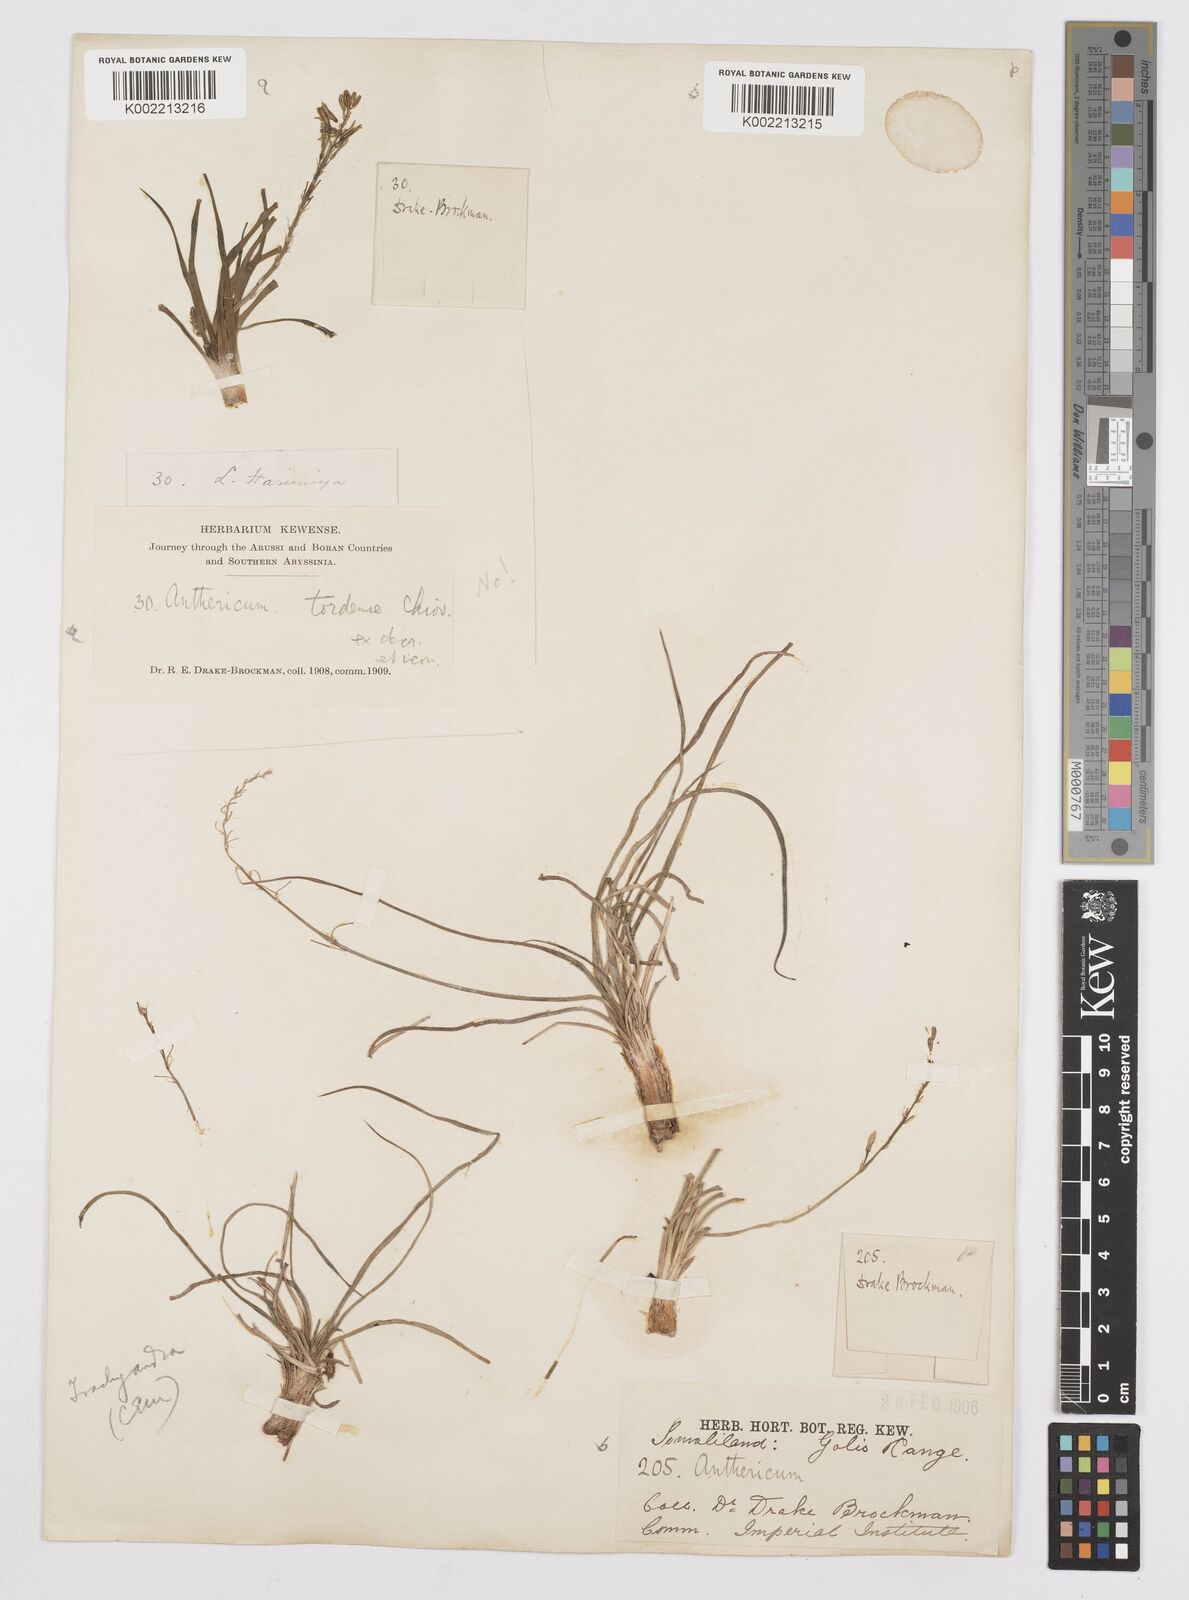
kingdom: Plantae
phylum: Tracheophyta
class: Liliopsida
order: Asparagales
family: Asphodelaceae
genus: Trachyandra
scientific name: Trachyandra saltii
